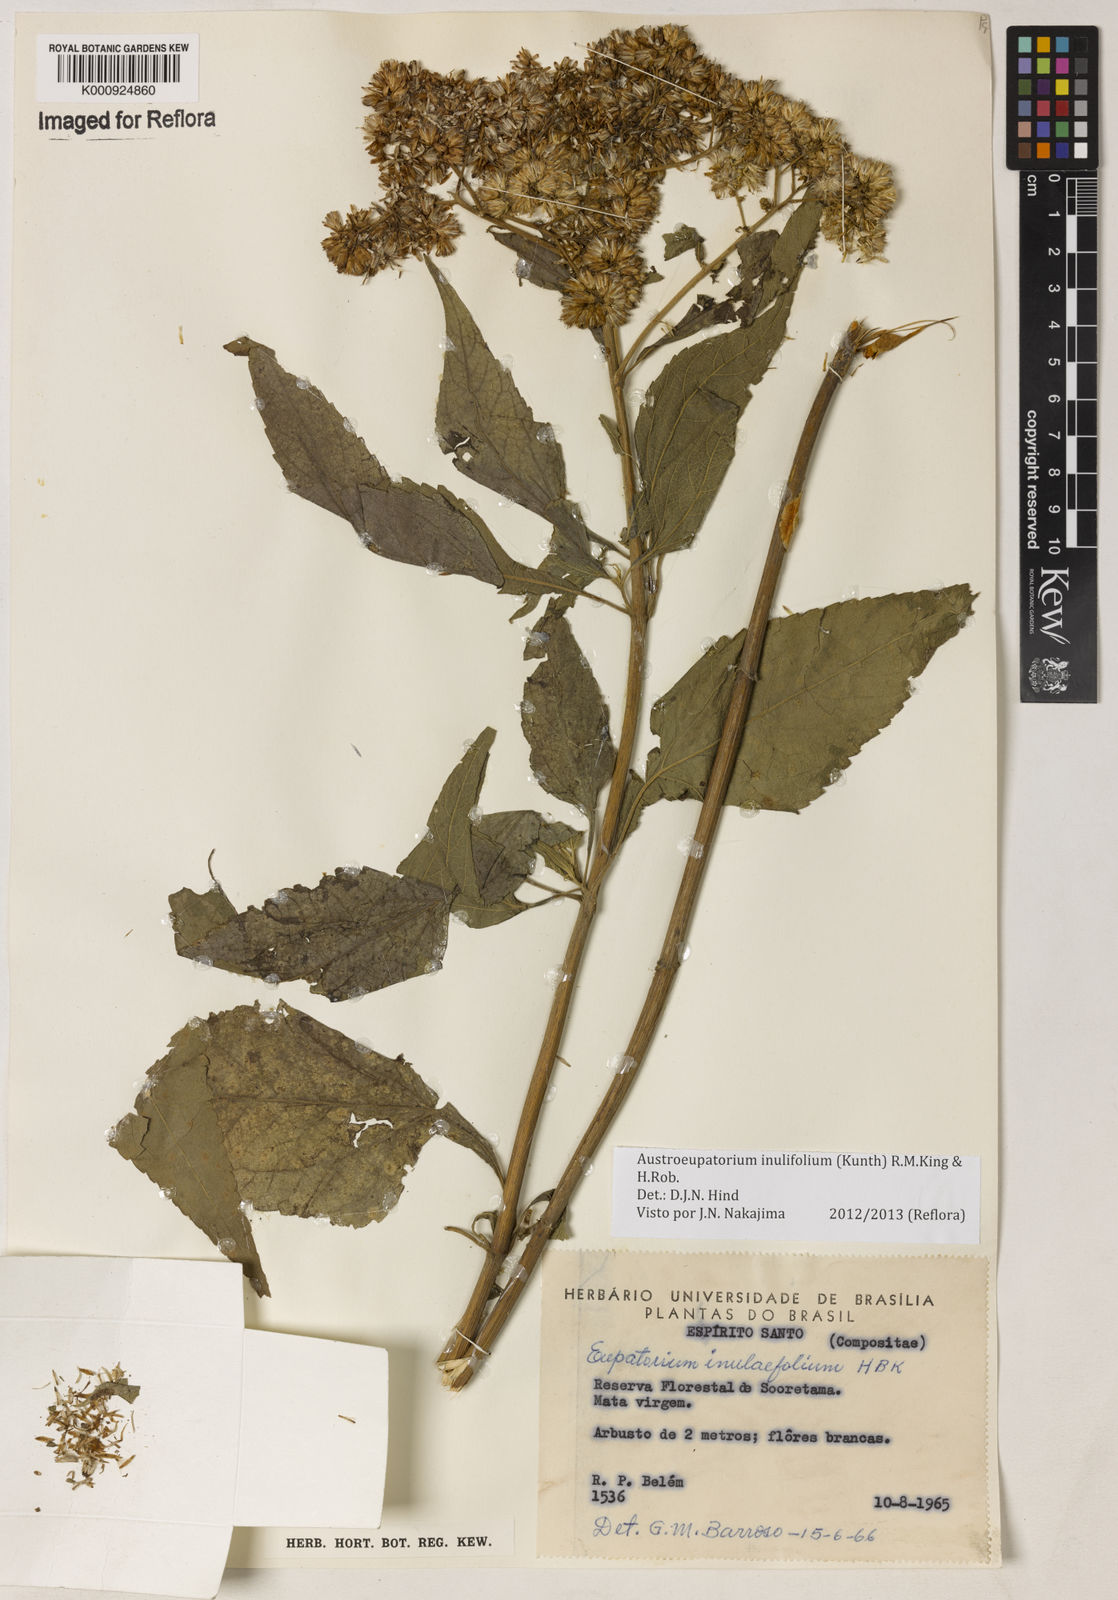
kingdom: Plantae
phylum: Tracheophyta
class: Magnoliopsida
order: Asterales
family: Asteraceae
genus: Austroeupatorium
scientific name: Austroeupatorium inulifolium
